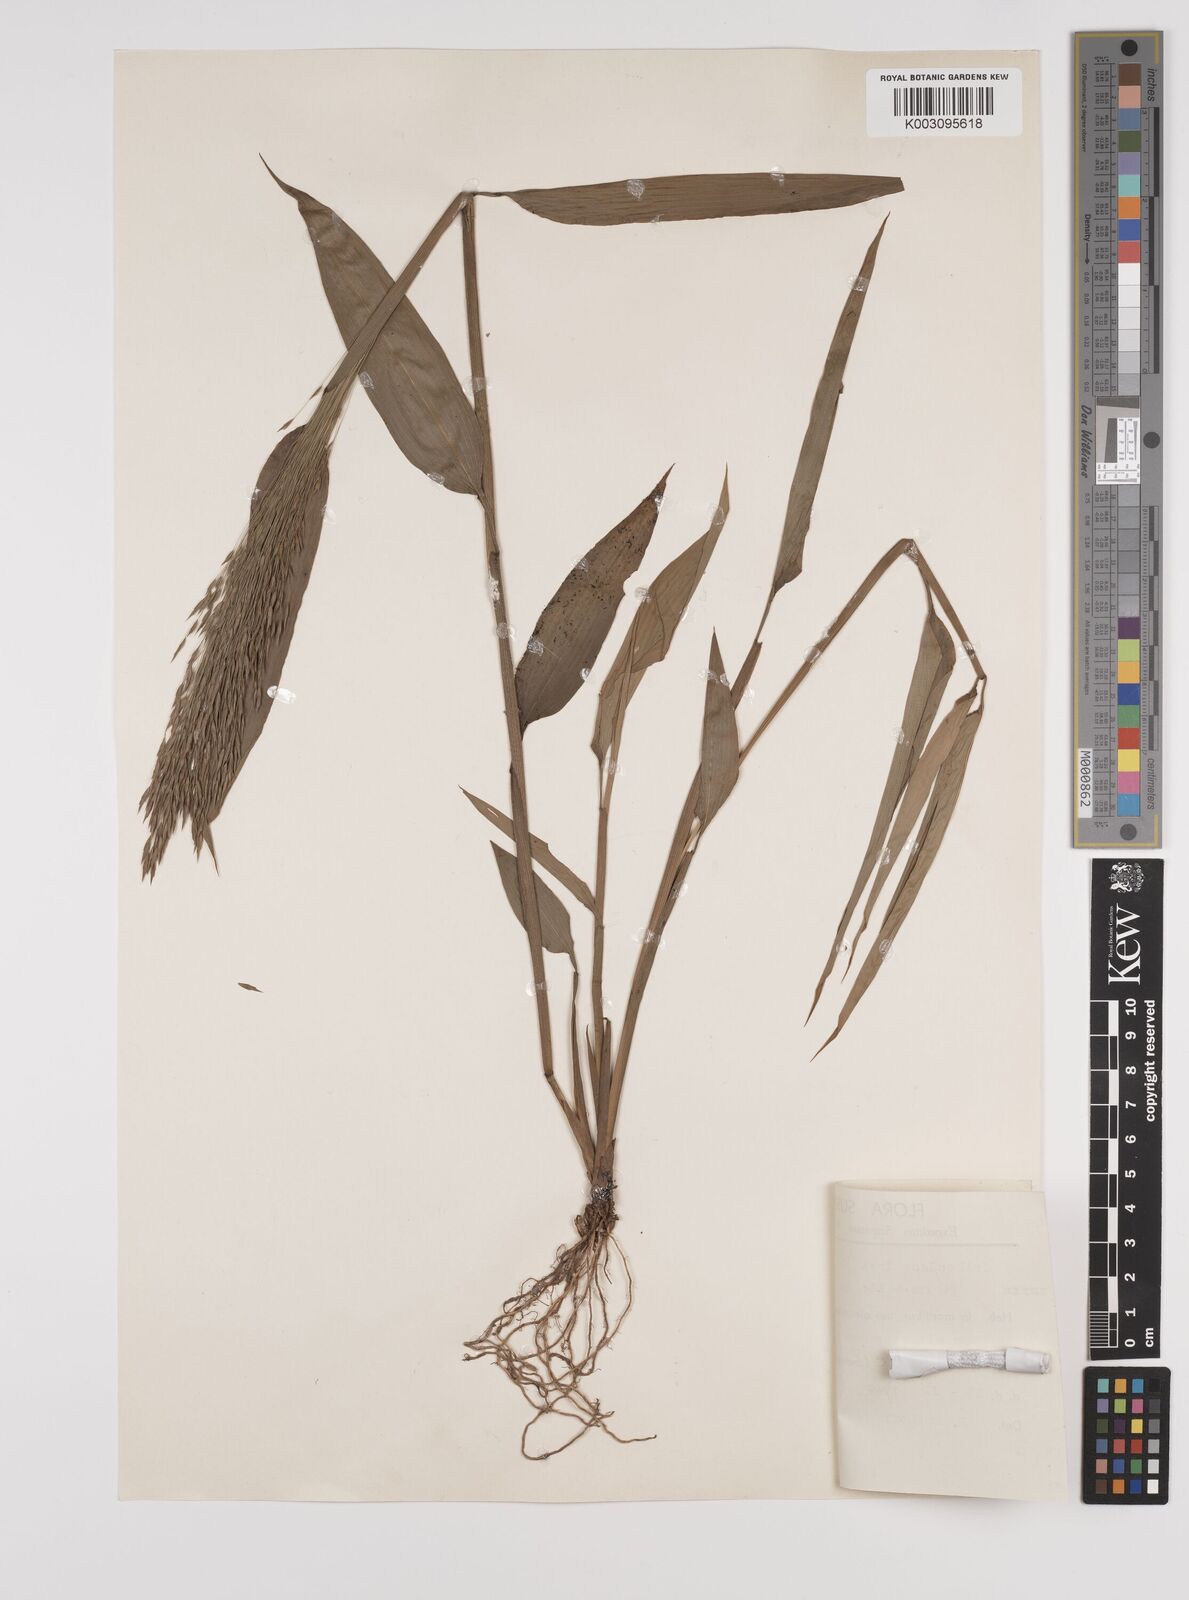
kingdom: Plantae
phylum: Tracheophyta
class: Liliopsida
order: Poales
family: Poaceae
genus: Orthoclada
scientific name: Orthoclada laxa
